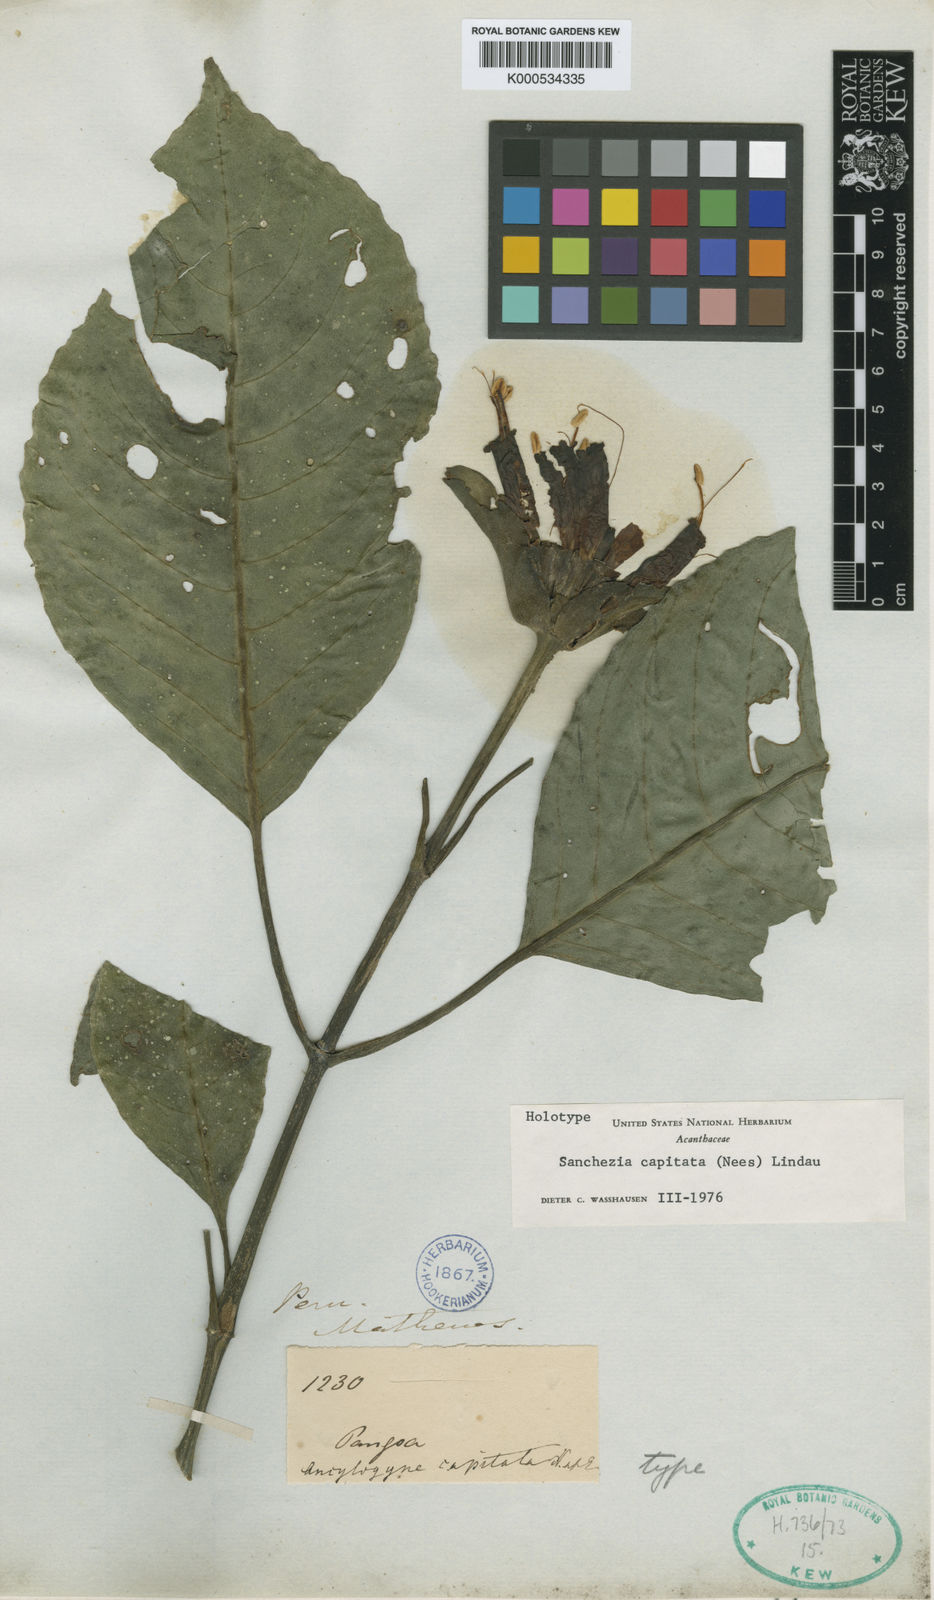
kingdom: Plantae
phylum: Tracheophyta
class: Magnoliopsida
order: Lamiales
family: Acanthaceae
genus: Sanchezia
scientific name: Sanchezia
